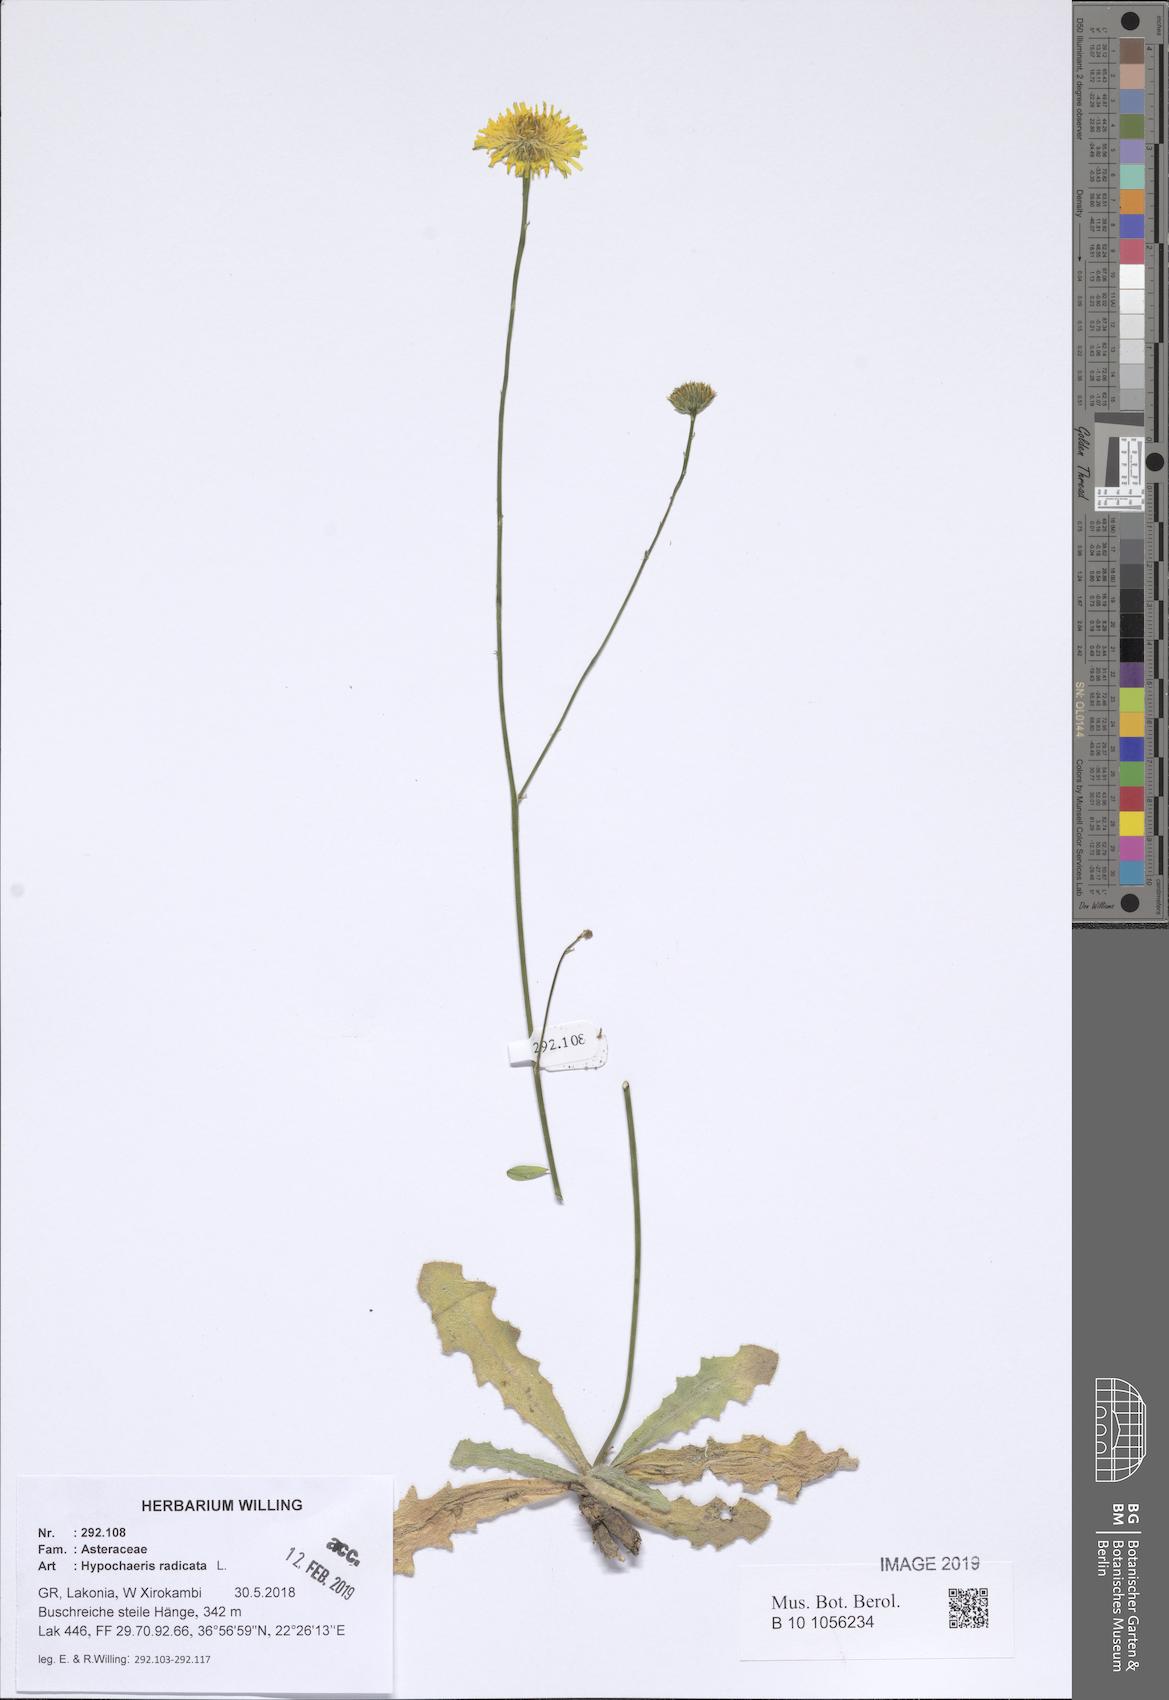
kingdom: Plantae
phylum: Tracheophyta
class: Magnoliopsida
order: Asterales
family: Asteraceae
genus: Hypochaeris
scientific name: Hypochaeris radicata
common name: Flatweed
